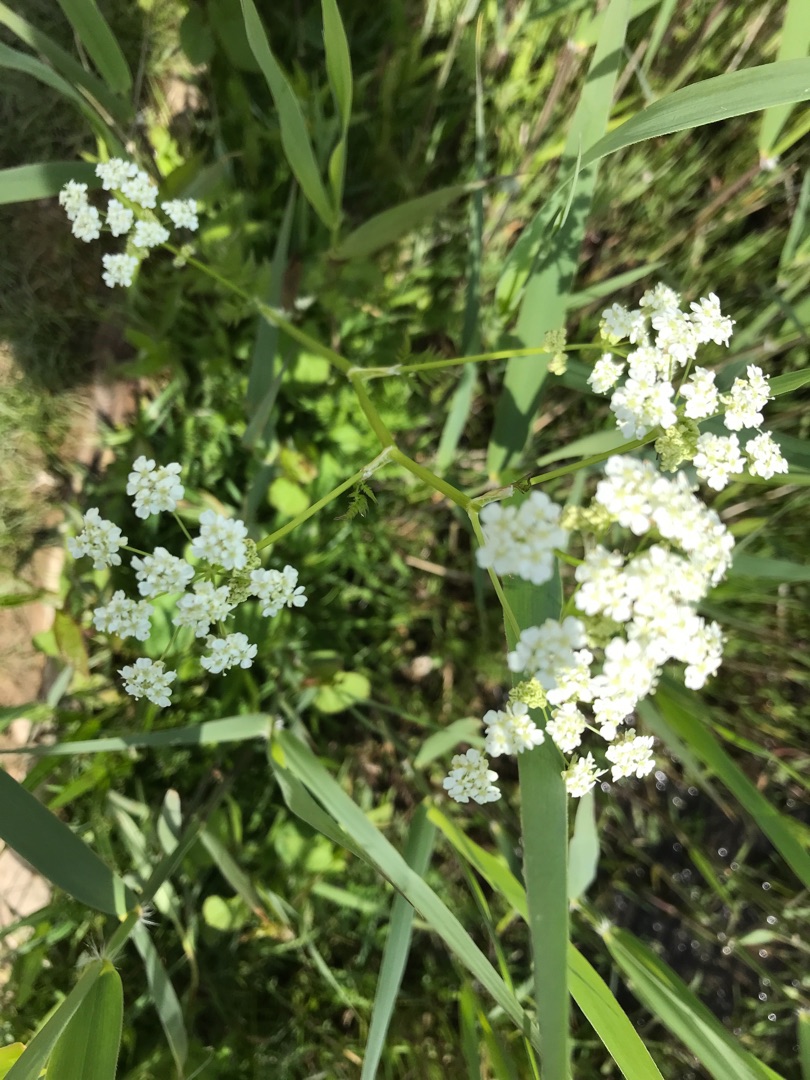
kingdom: Plantae
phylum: Tracheophyta
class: Magnoliopsida
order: Apiales
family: Apiaceae
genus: Anthriscus
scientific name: Anthriscus sylvestris
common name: Vild kørvel
